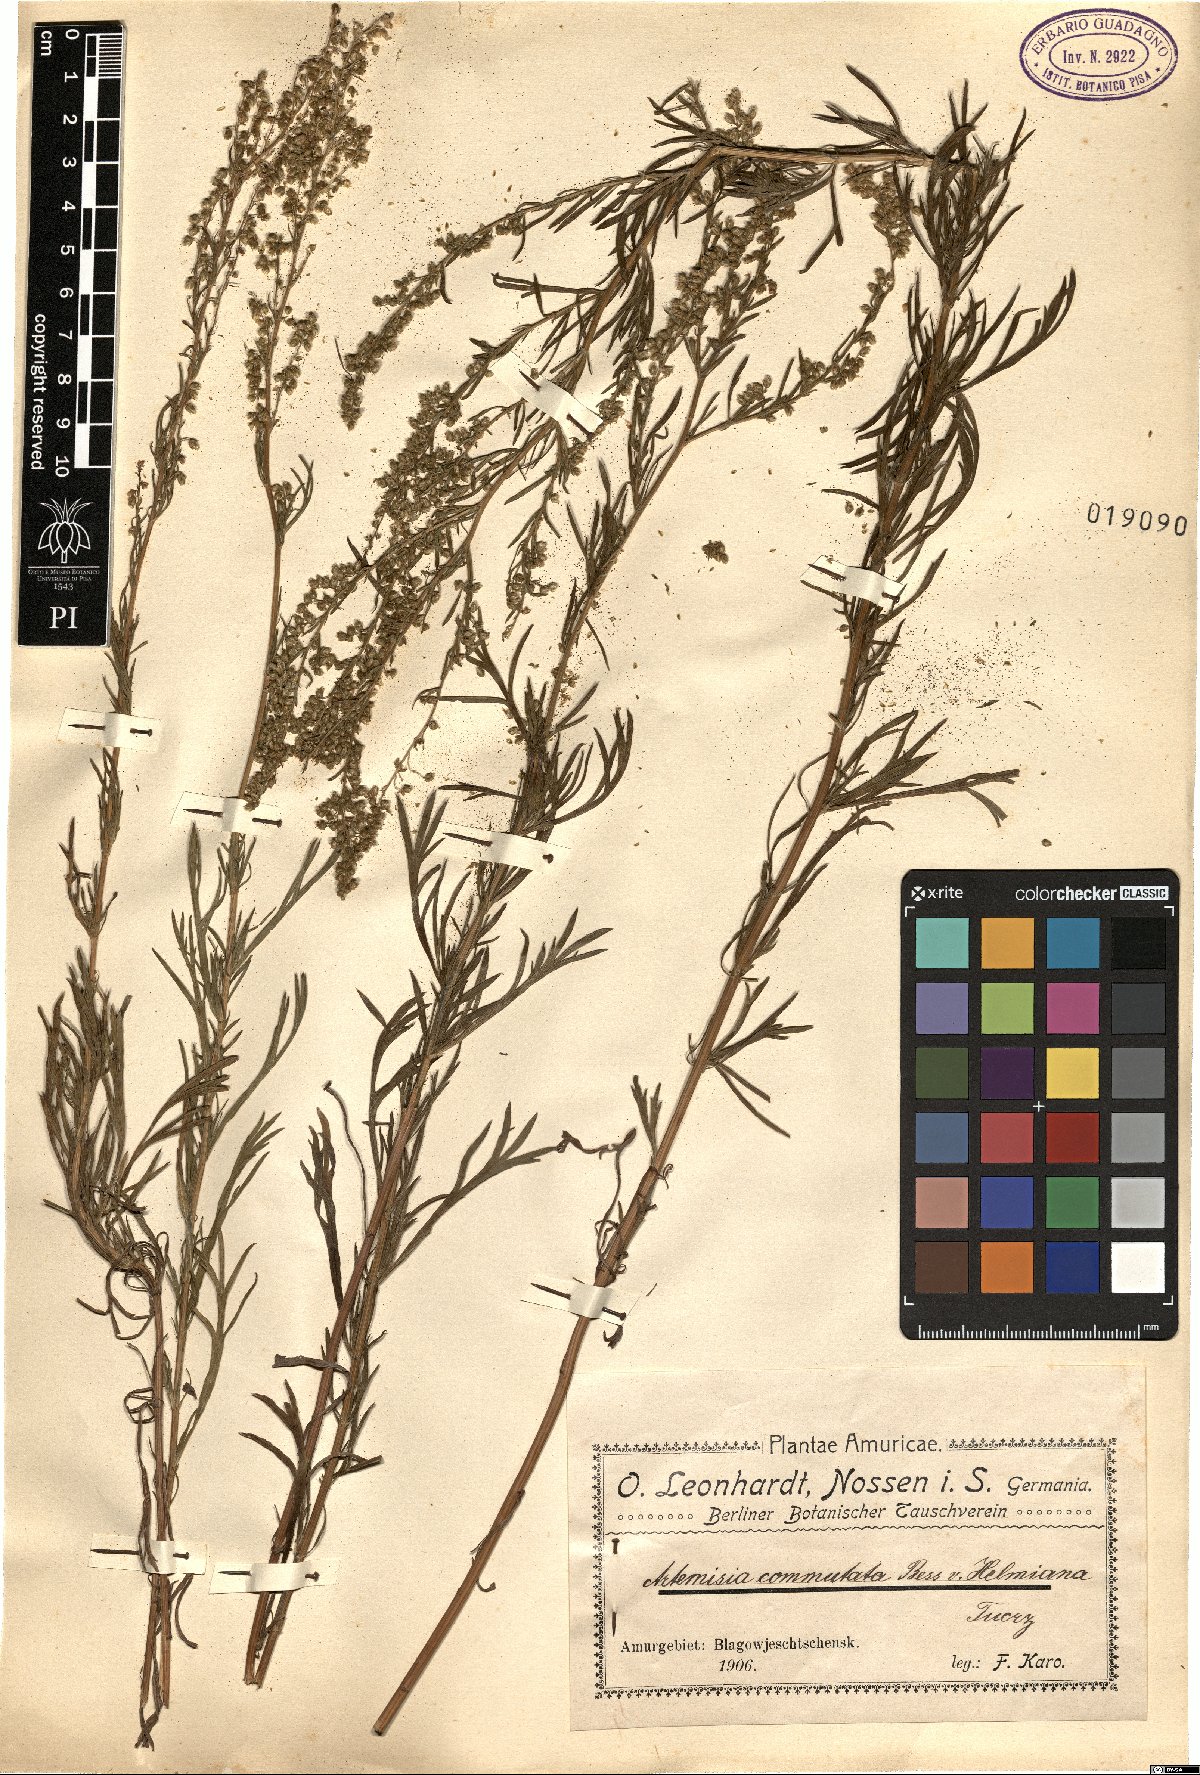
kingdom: Plantae
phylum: Tracheophyta
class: Magnoliopsida
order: Asterales
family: Asteraceae
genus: Artemisia
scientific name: Artemisia pubescens
